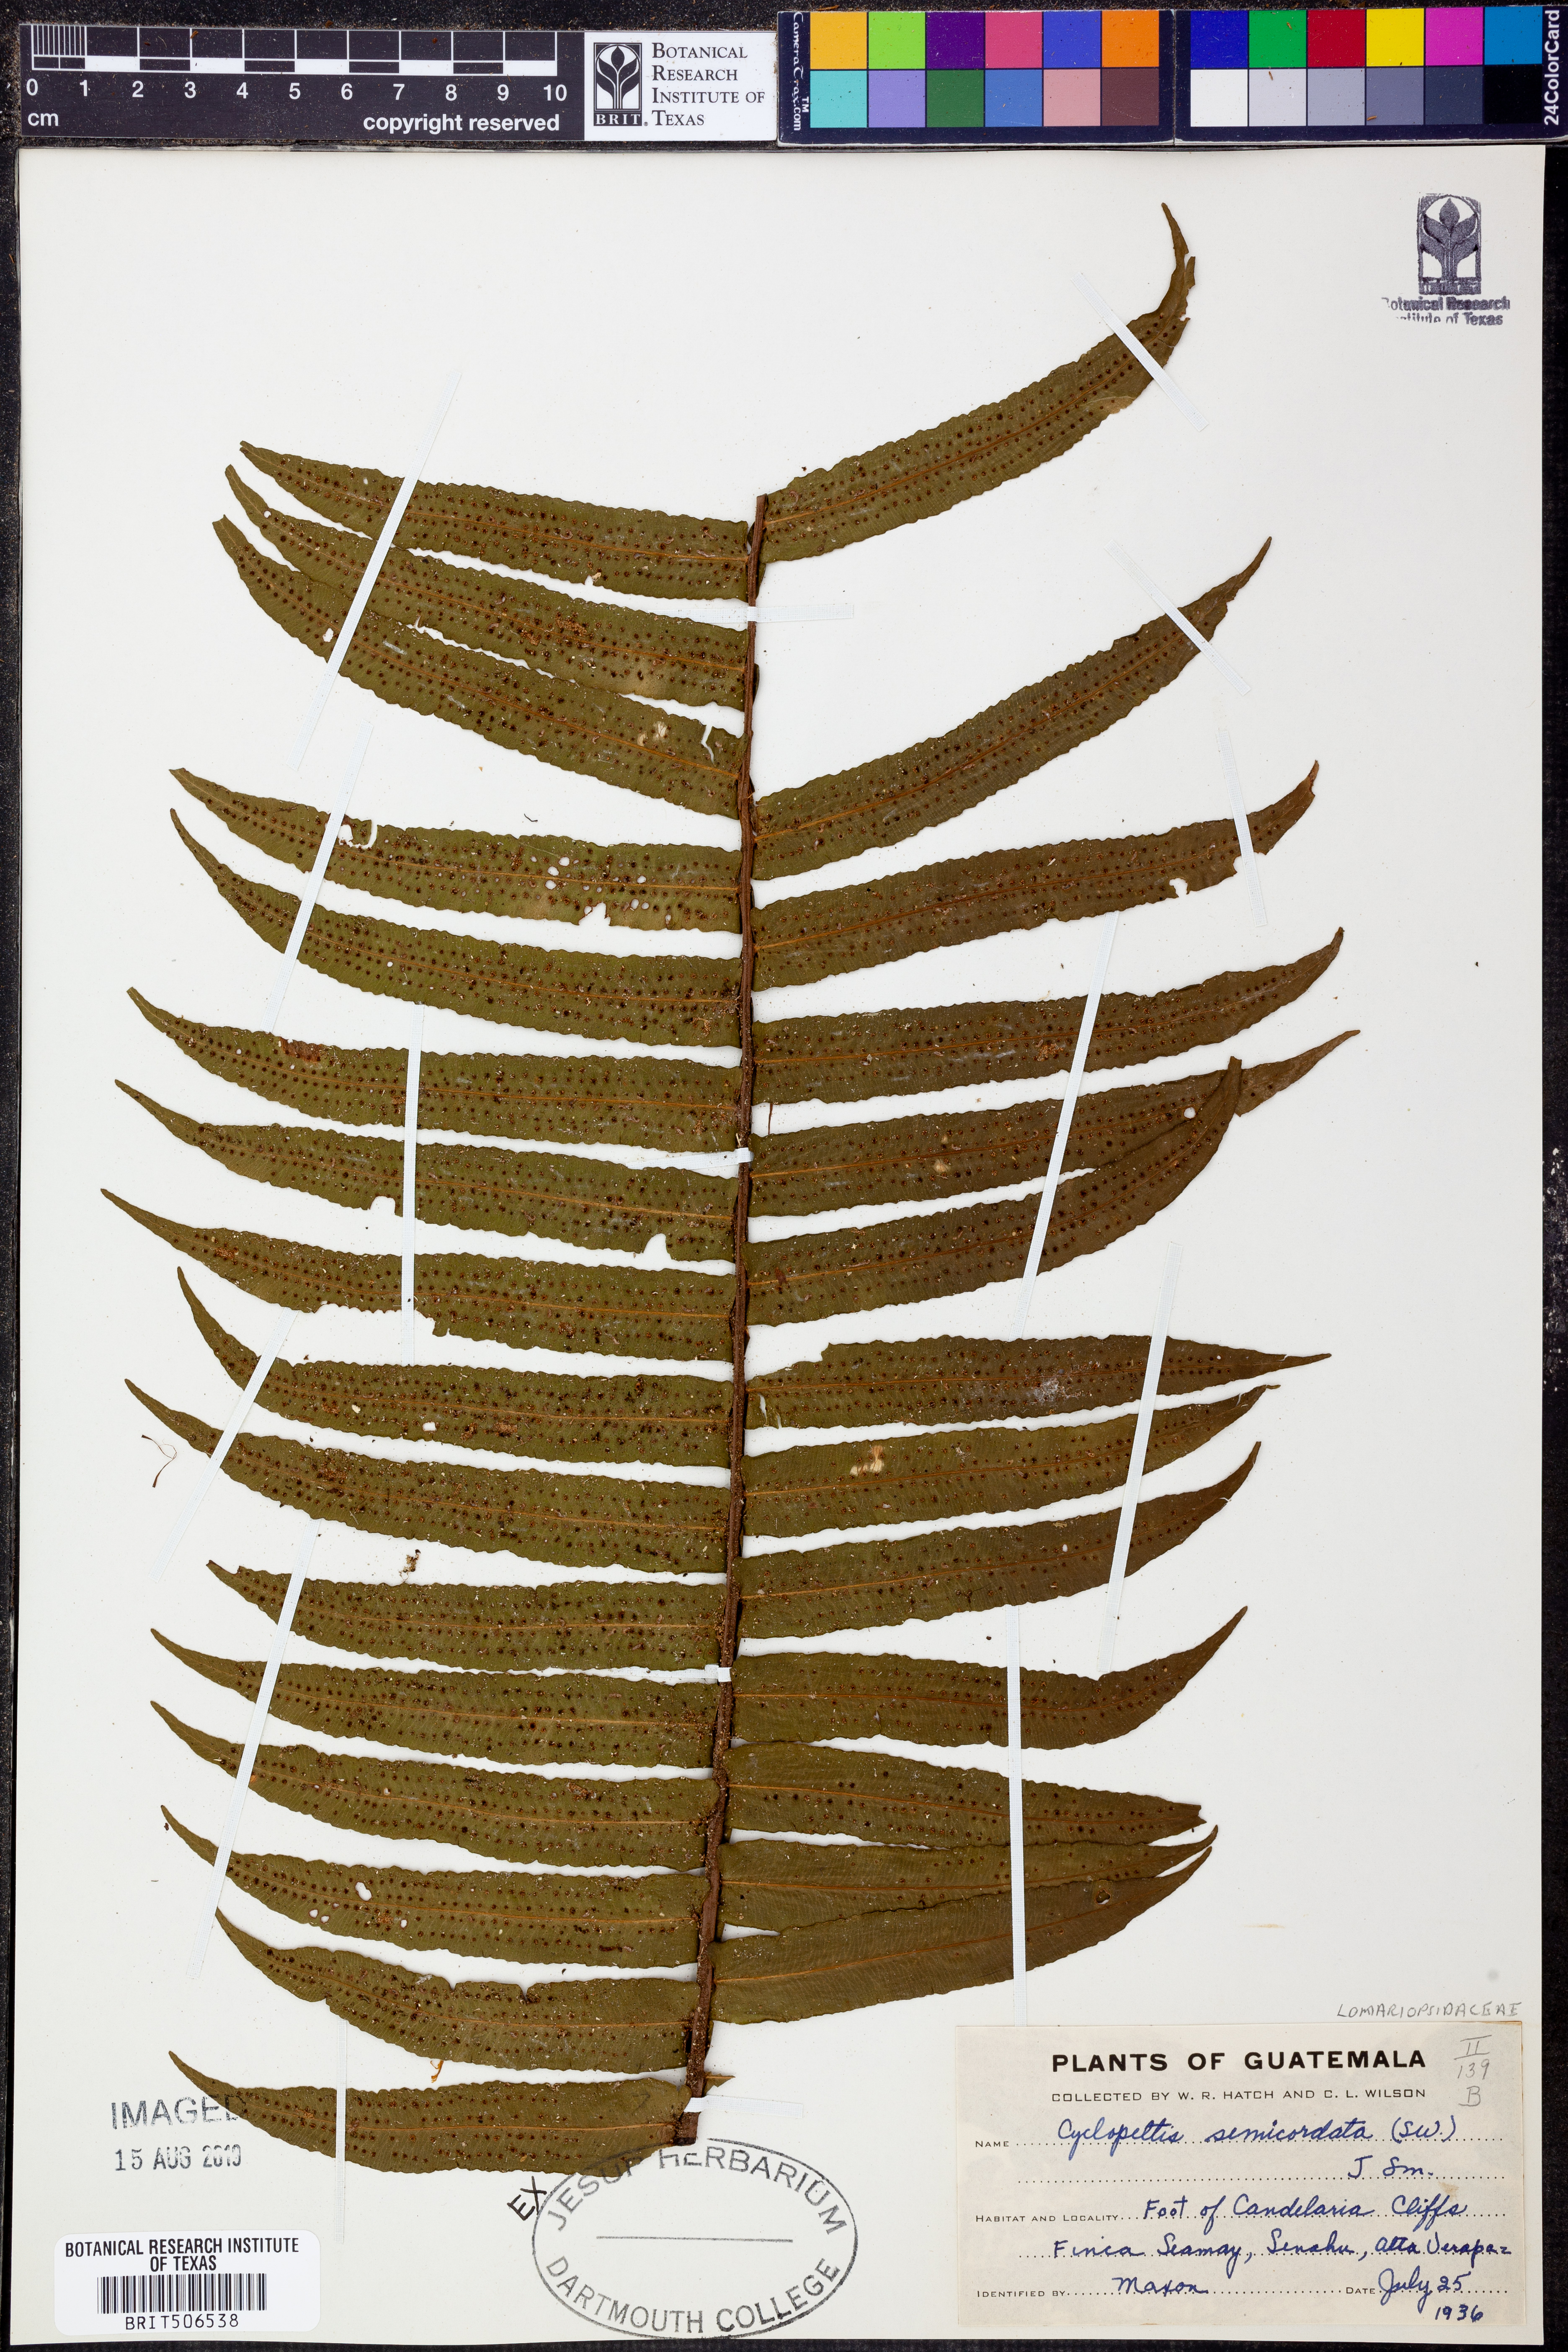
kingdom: Plantae
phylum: Tracheophyta
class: Polypodiopsida
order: Polypodiales
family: Lomariopsidaceae
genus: Cyclopeltis
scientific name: Cyclopeltis semicordata
